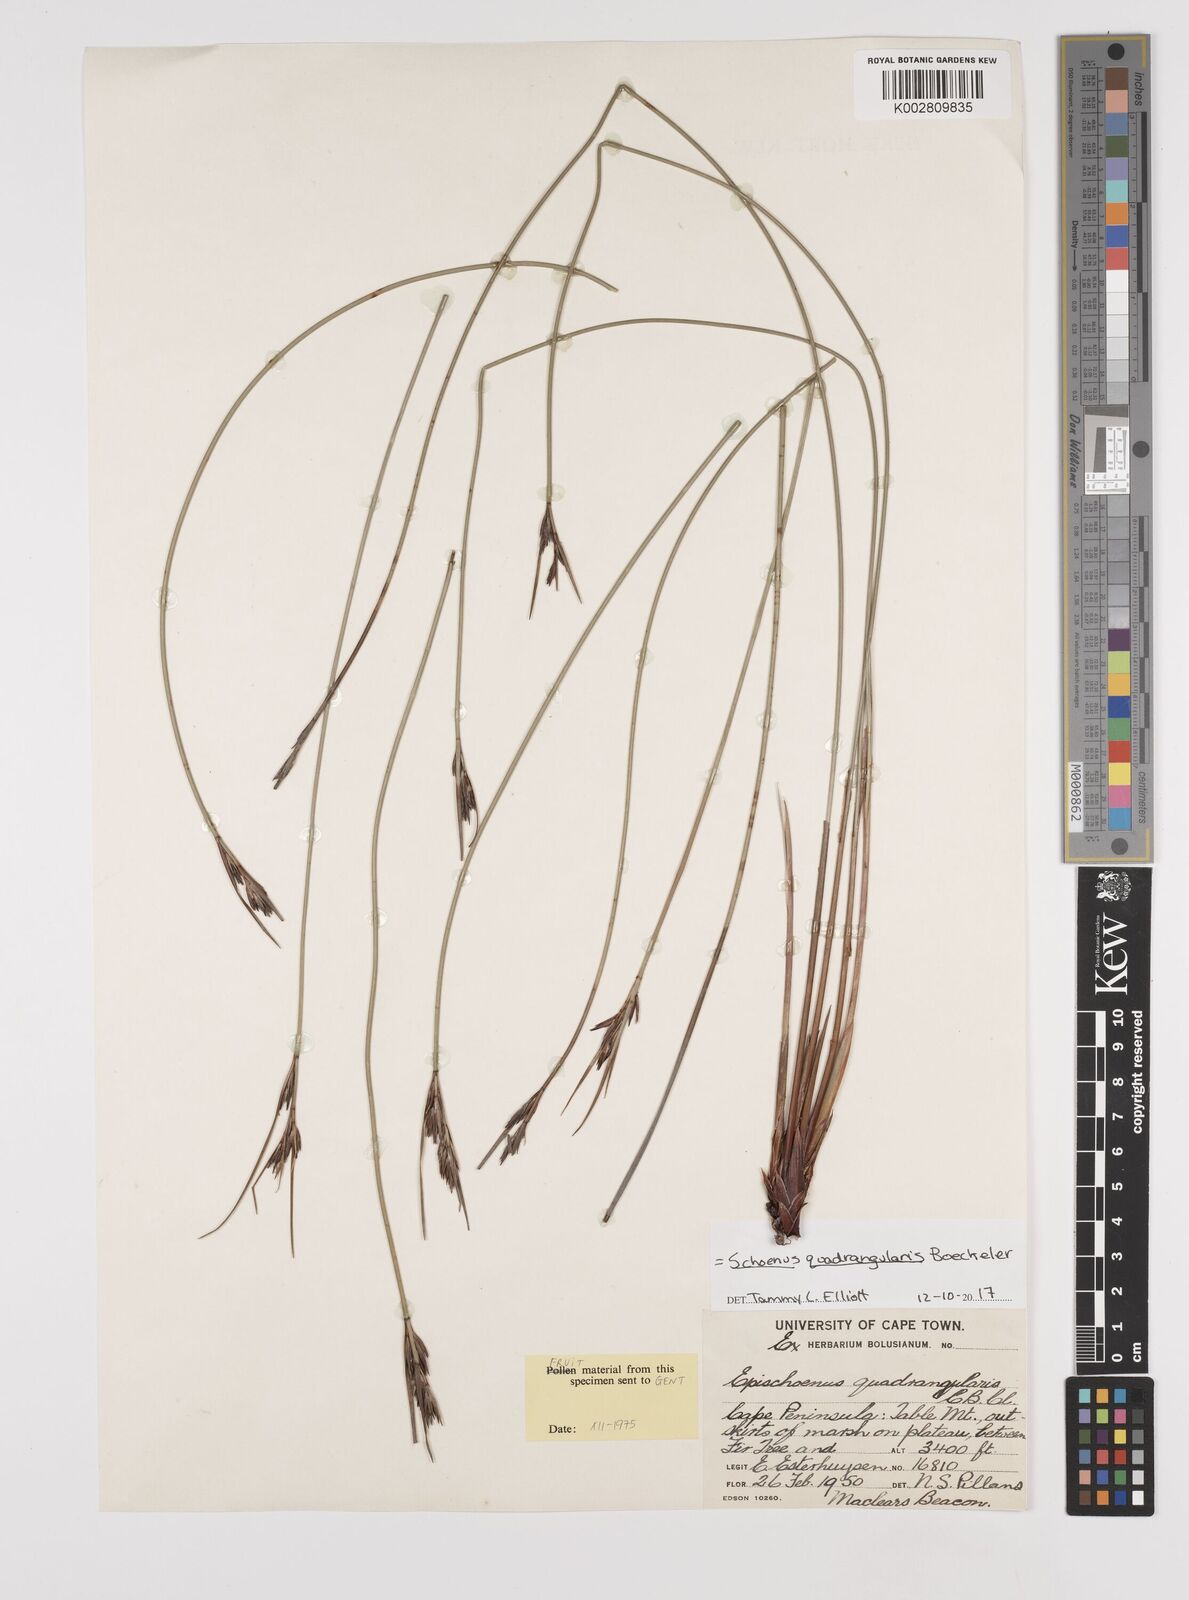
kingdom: Plantae
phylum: Tracheophyta
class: Liliopsida
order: Poales
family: Cyperaceae
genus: Schoenus
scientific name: Schoenus quadrangularis
